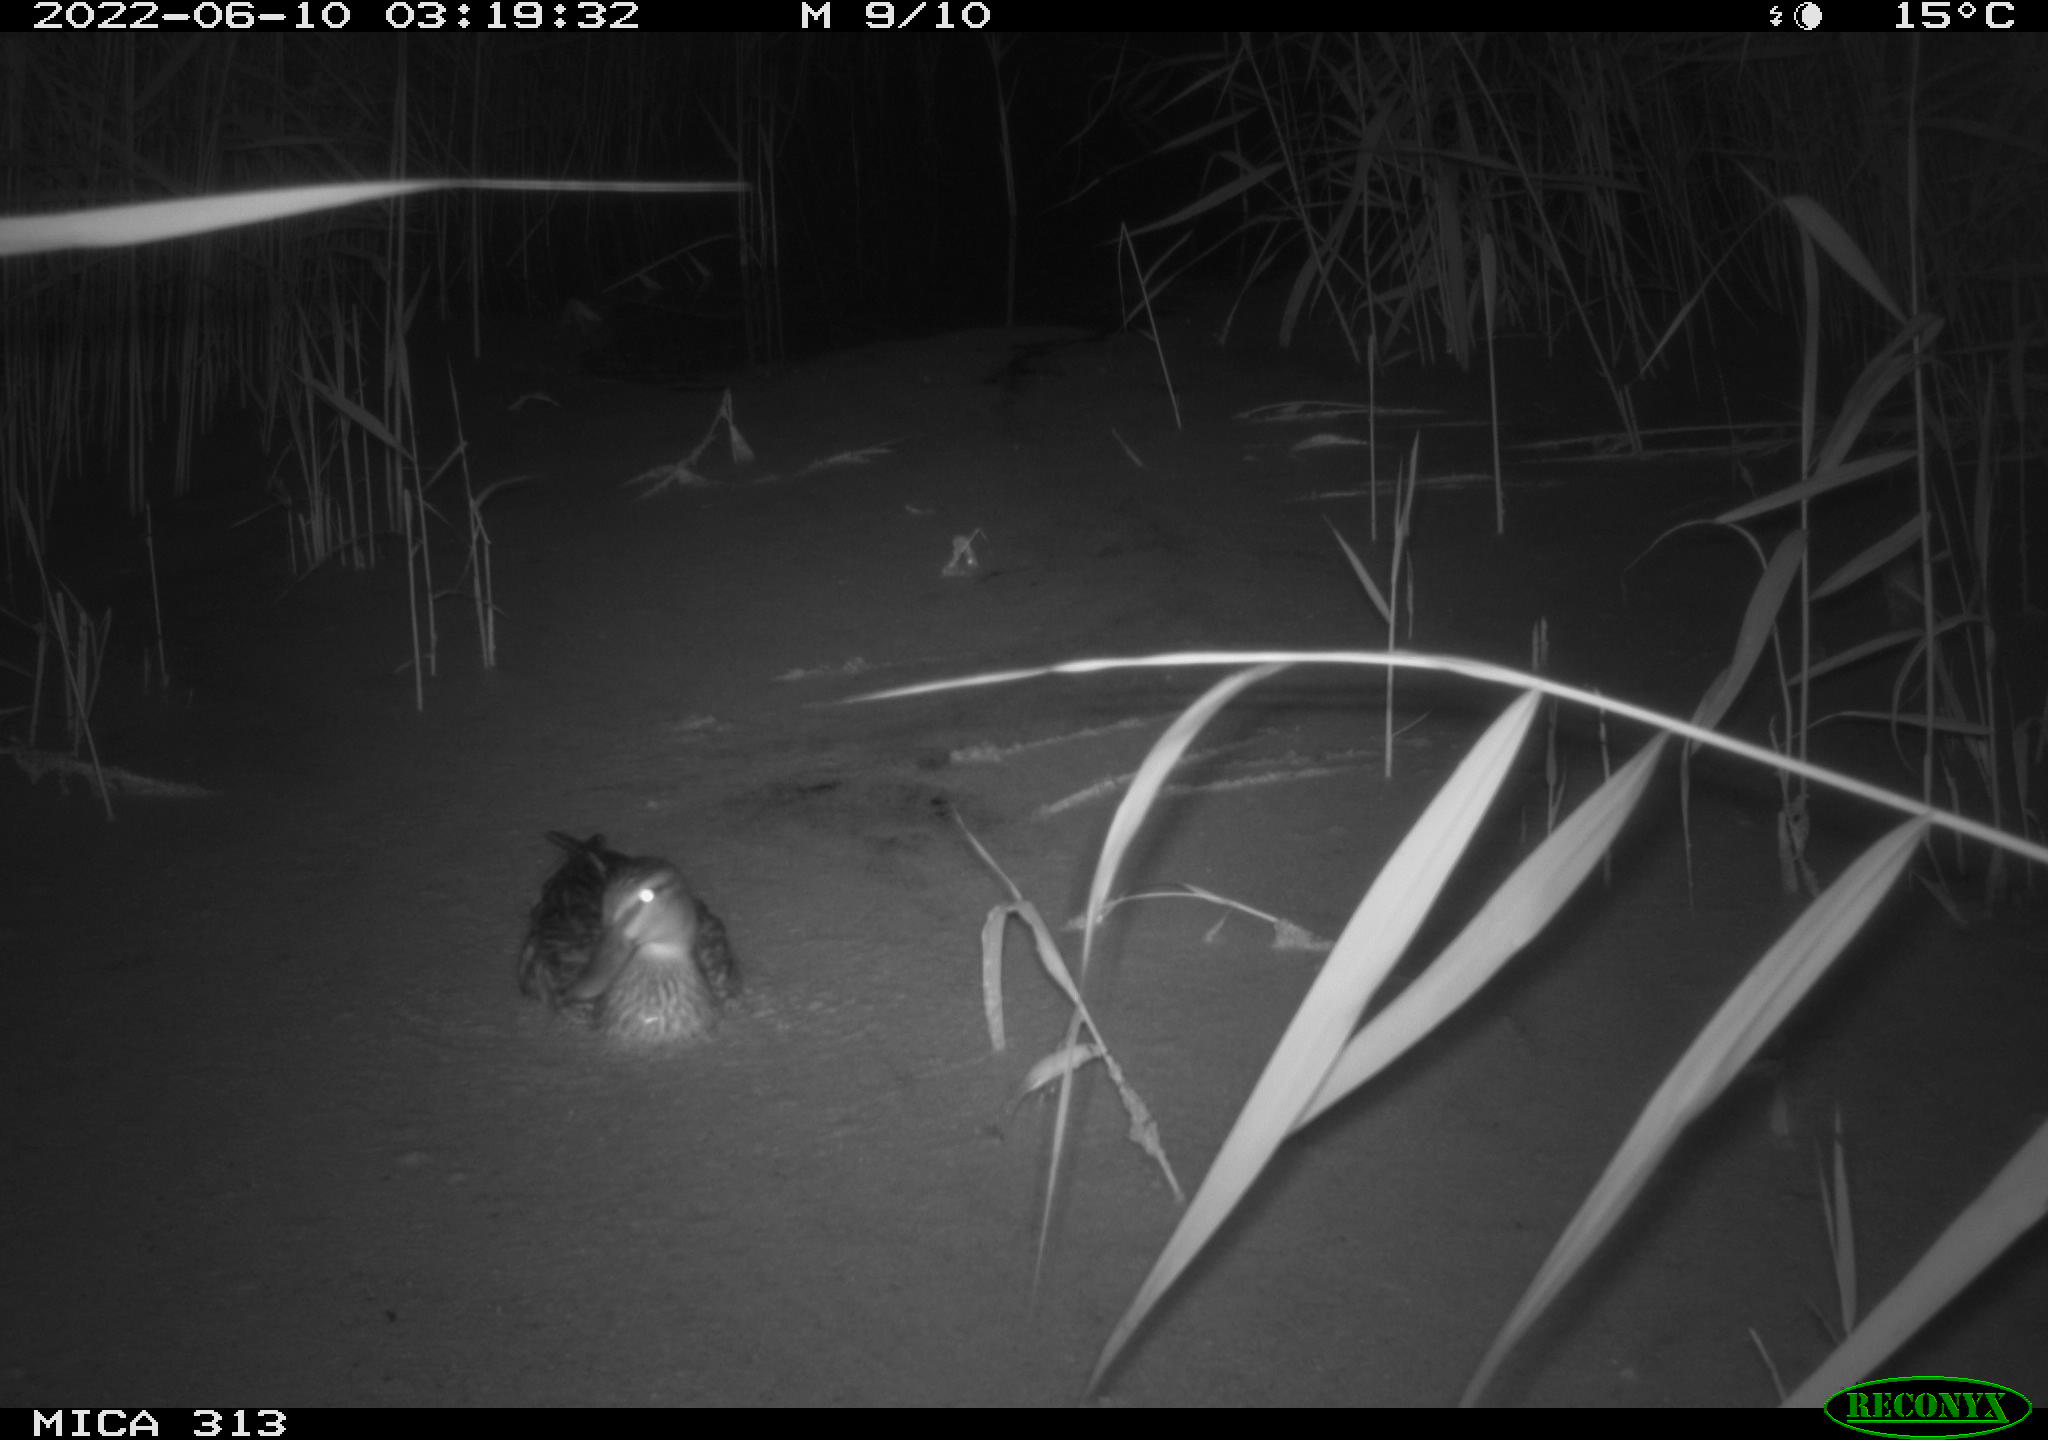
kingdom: Animalia
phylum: Chordata
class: Aves
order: Anseriformes
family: Anatidae
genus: Anas
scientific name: Anas platyrhynchos
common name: Mallard
